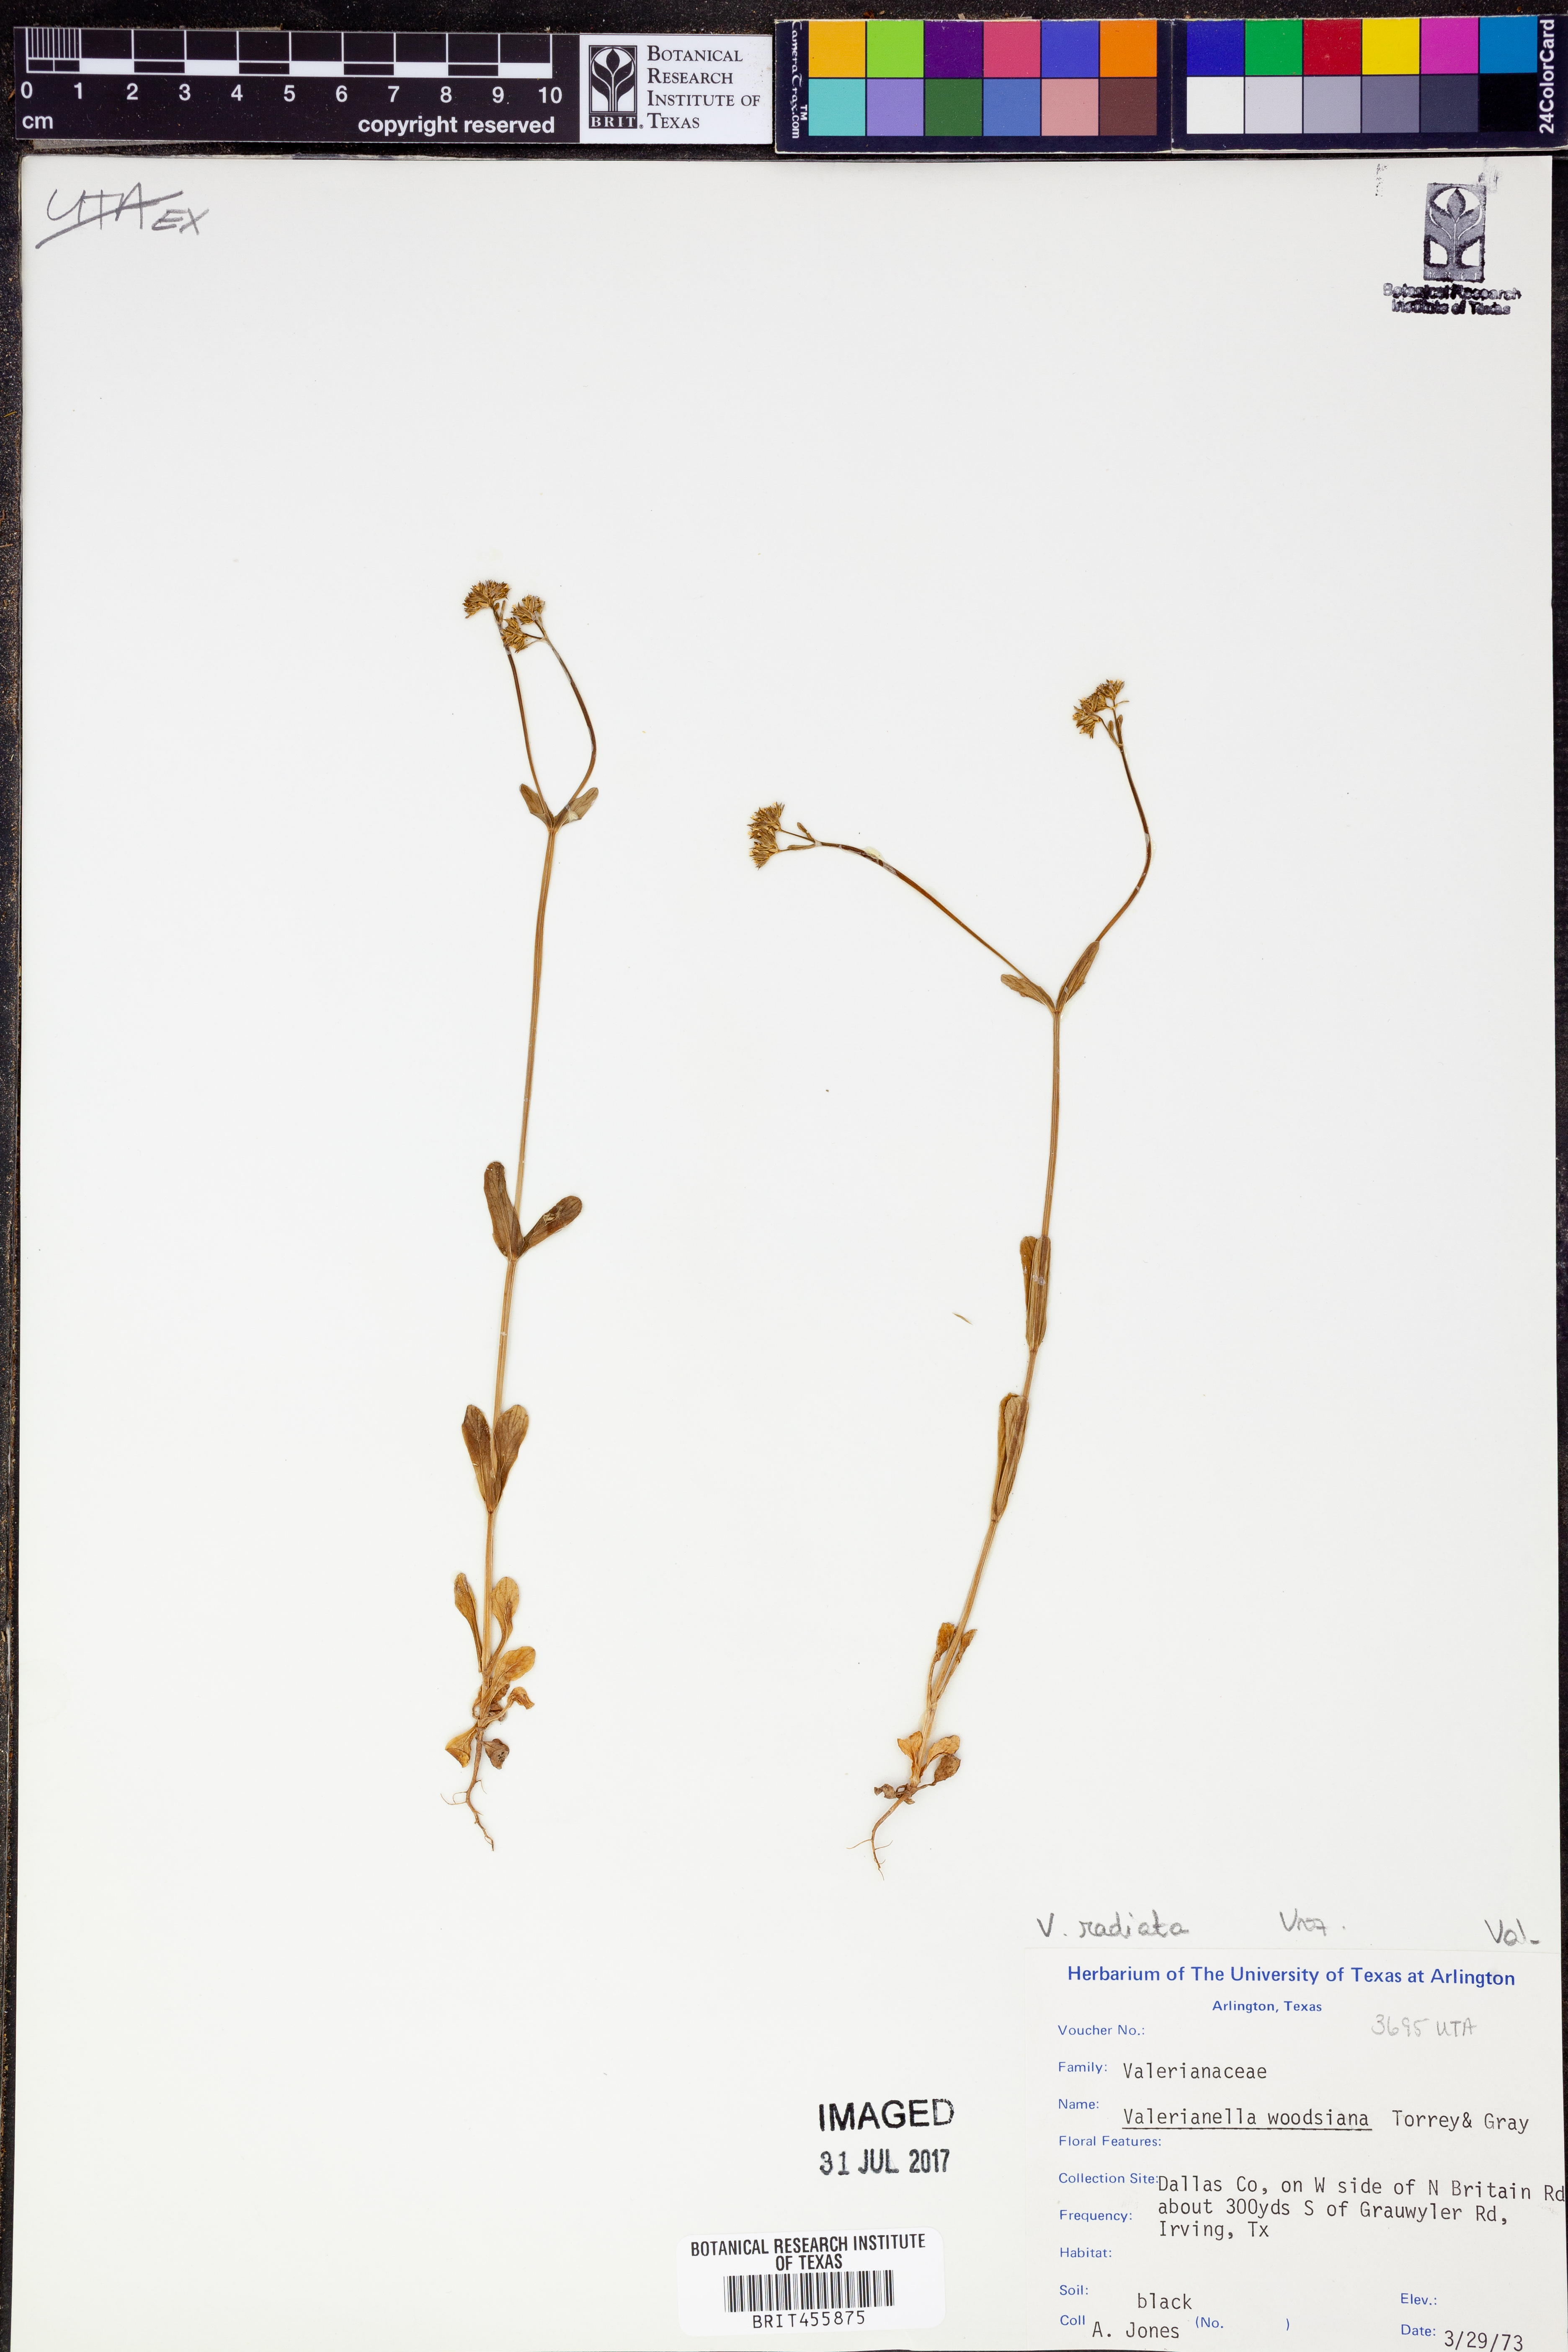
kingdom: Plantae
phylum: Tracheophyta
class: Magnoliopsida
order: Dipsacales
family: Caprifoliaceae
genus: Valerianella
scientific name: Valerianella radiata
